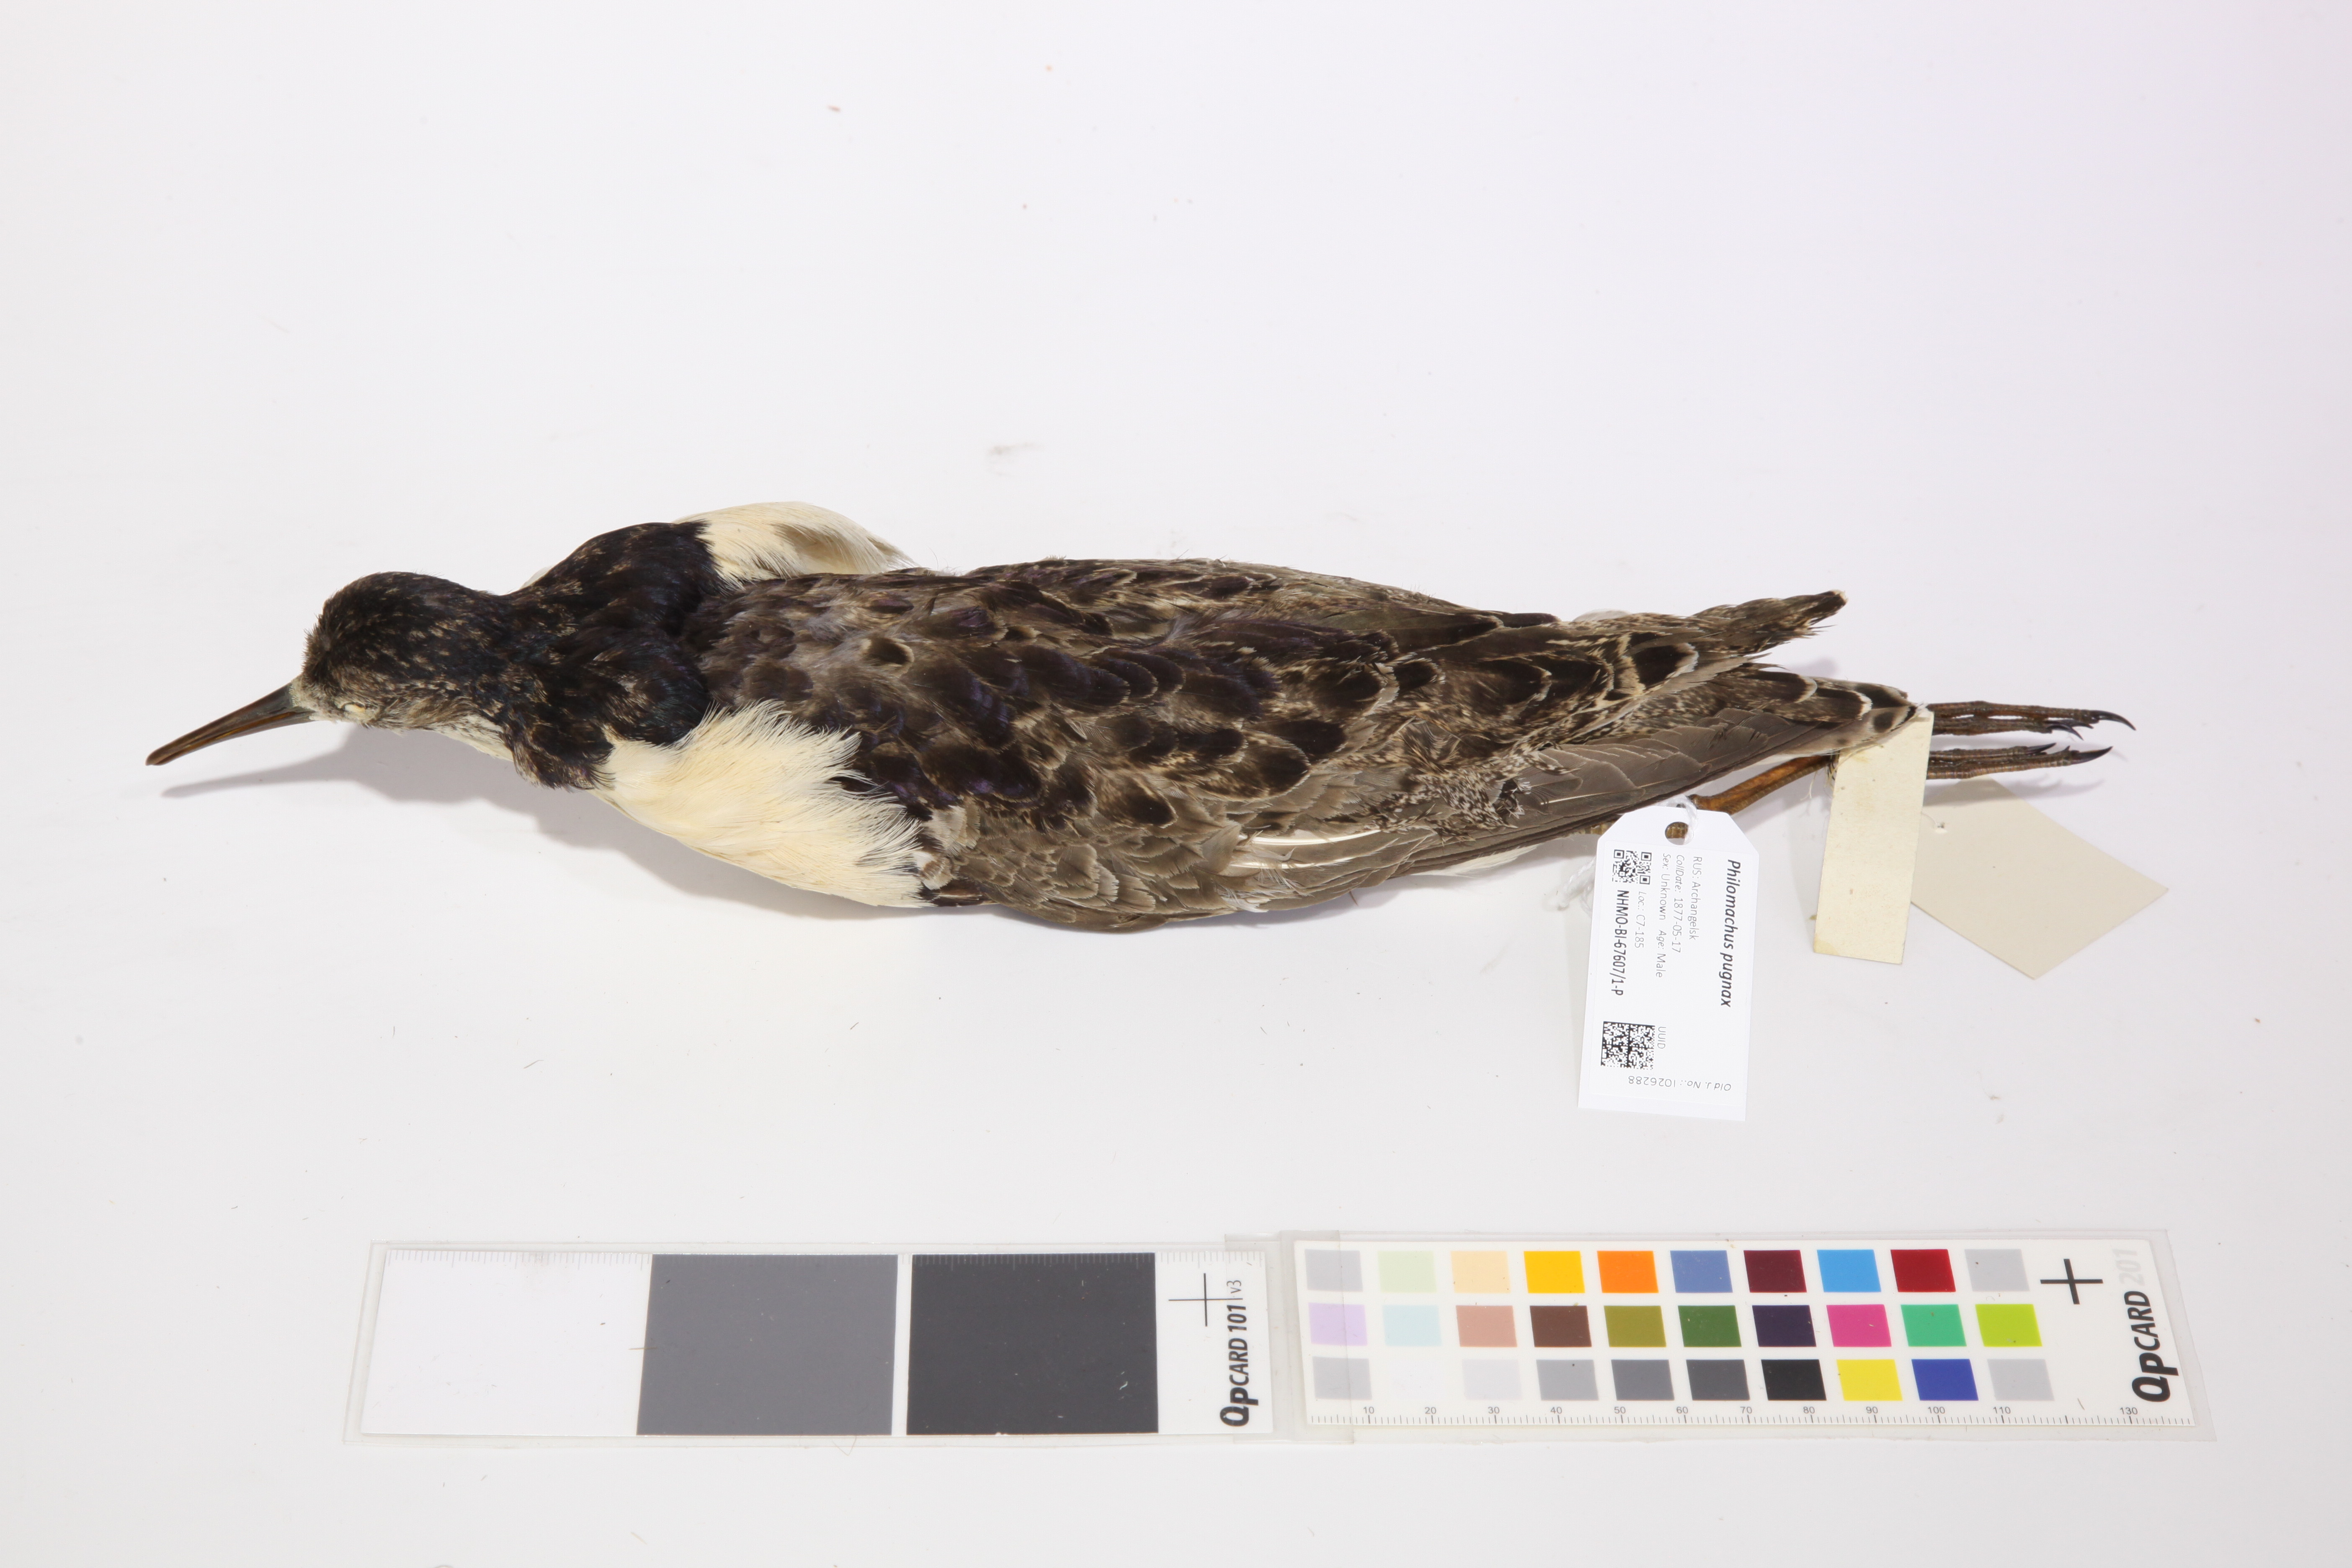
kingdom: Animalia
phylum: Chordata
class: Aves
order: Charadriiformes
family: Scolopacidae
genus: Calidris
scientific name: Calidris pugnax
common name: Ruff
